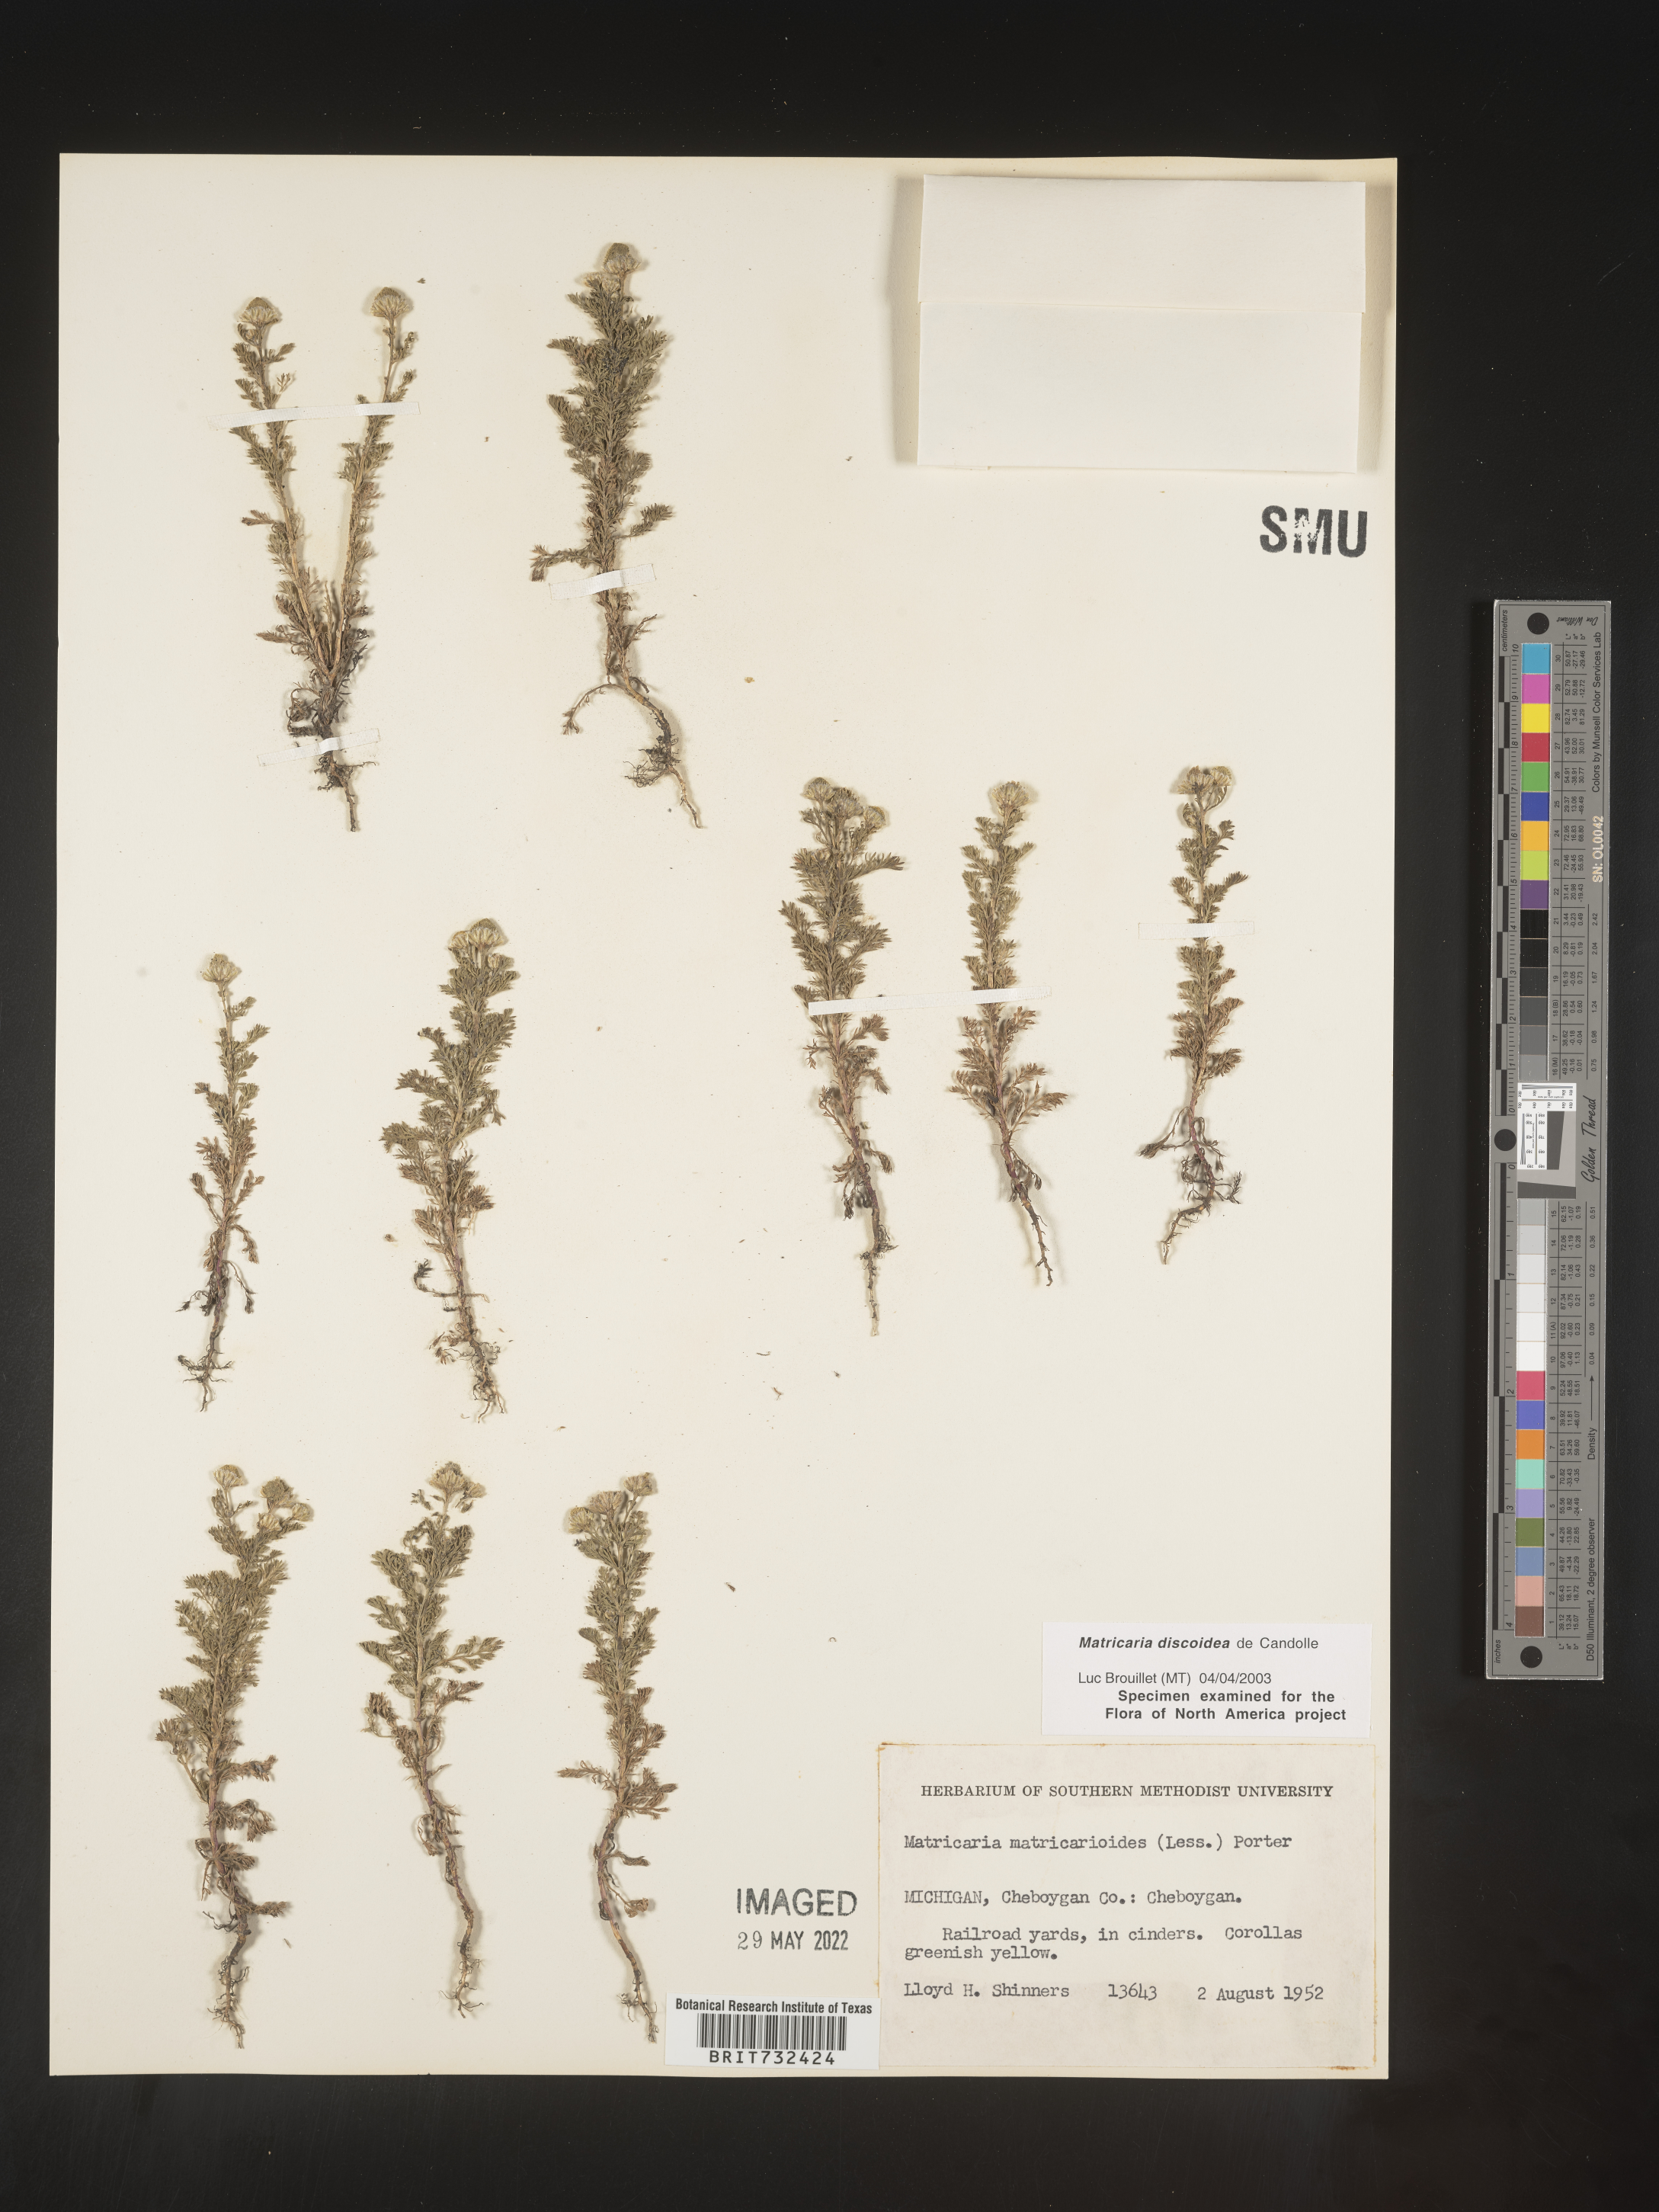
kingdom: Plantae
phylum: Tracheophyta
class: Magnoliopsida
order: Asterales
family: Asteraceae
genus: Matricaria
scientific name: Matricaria discoidea
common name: Disc mayweed
